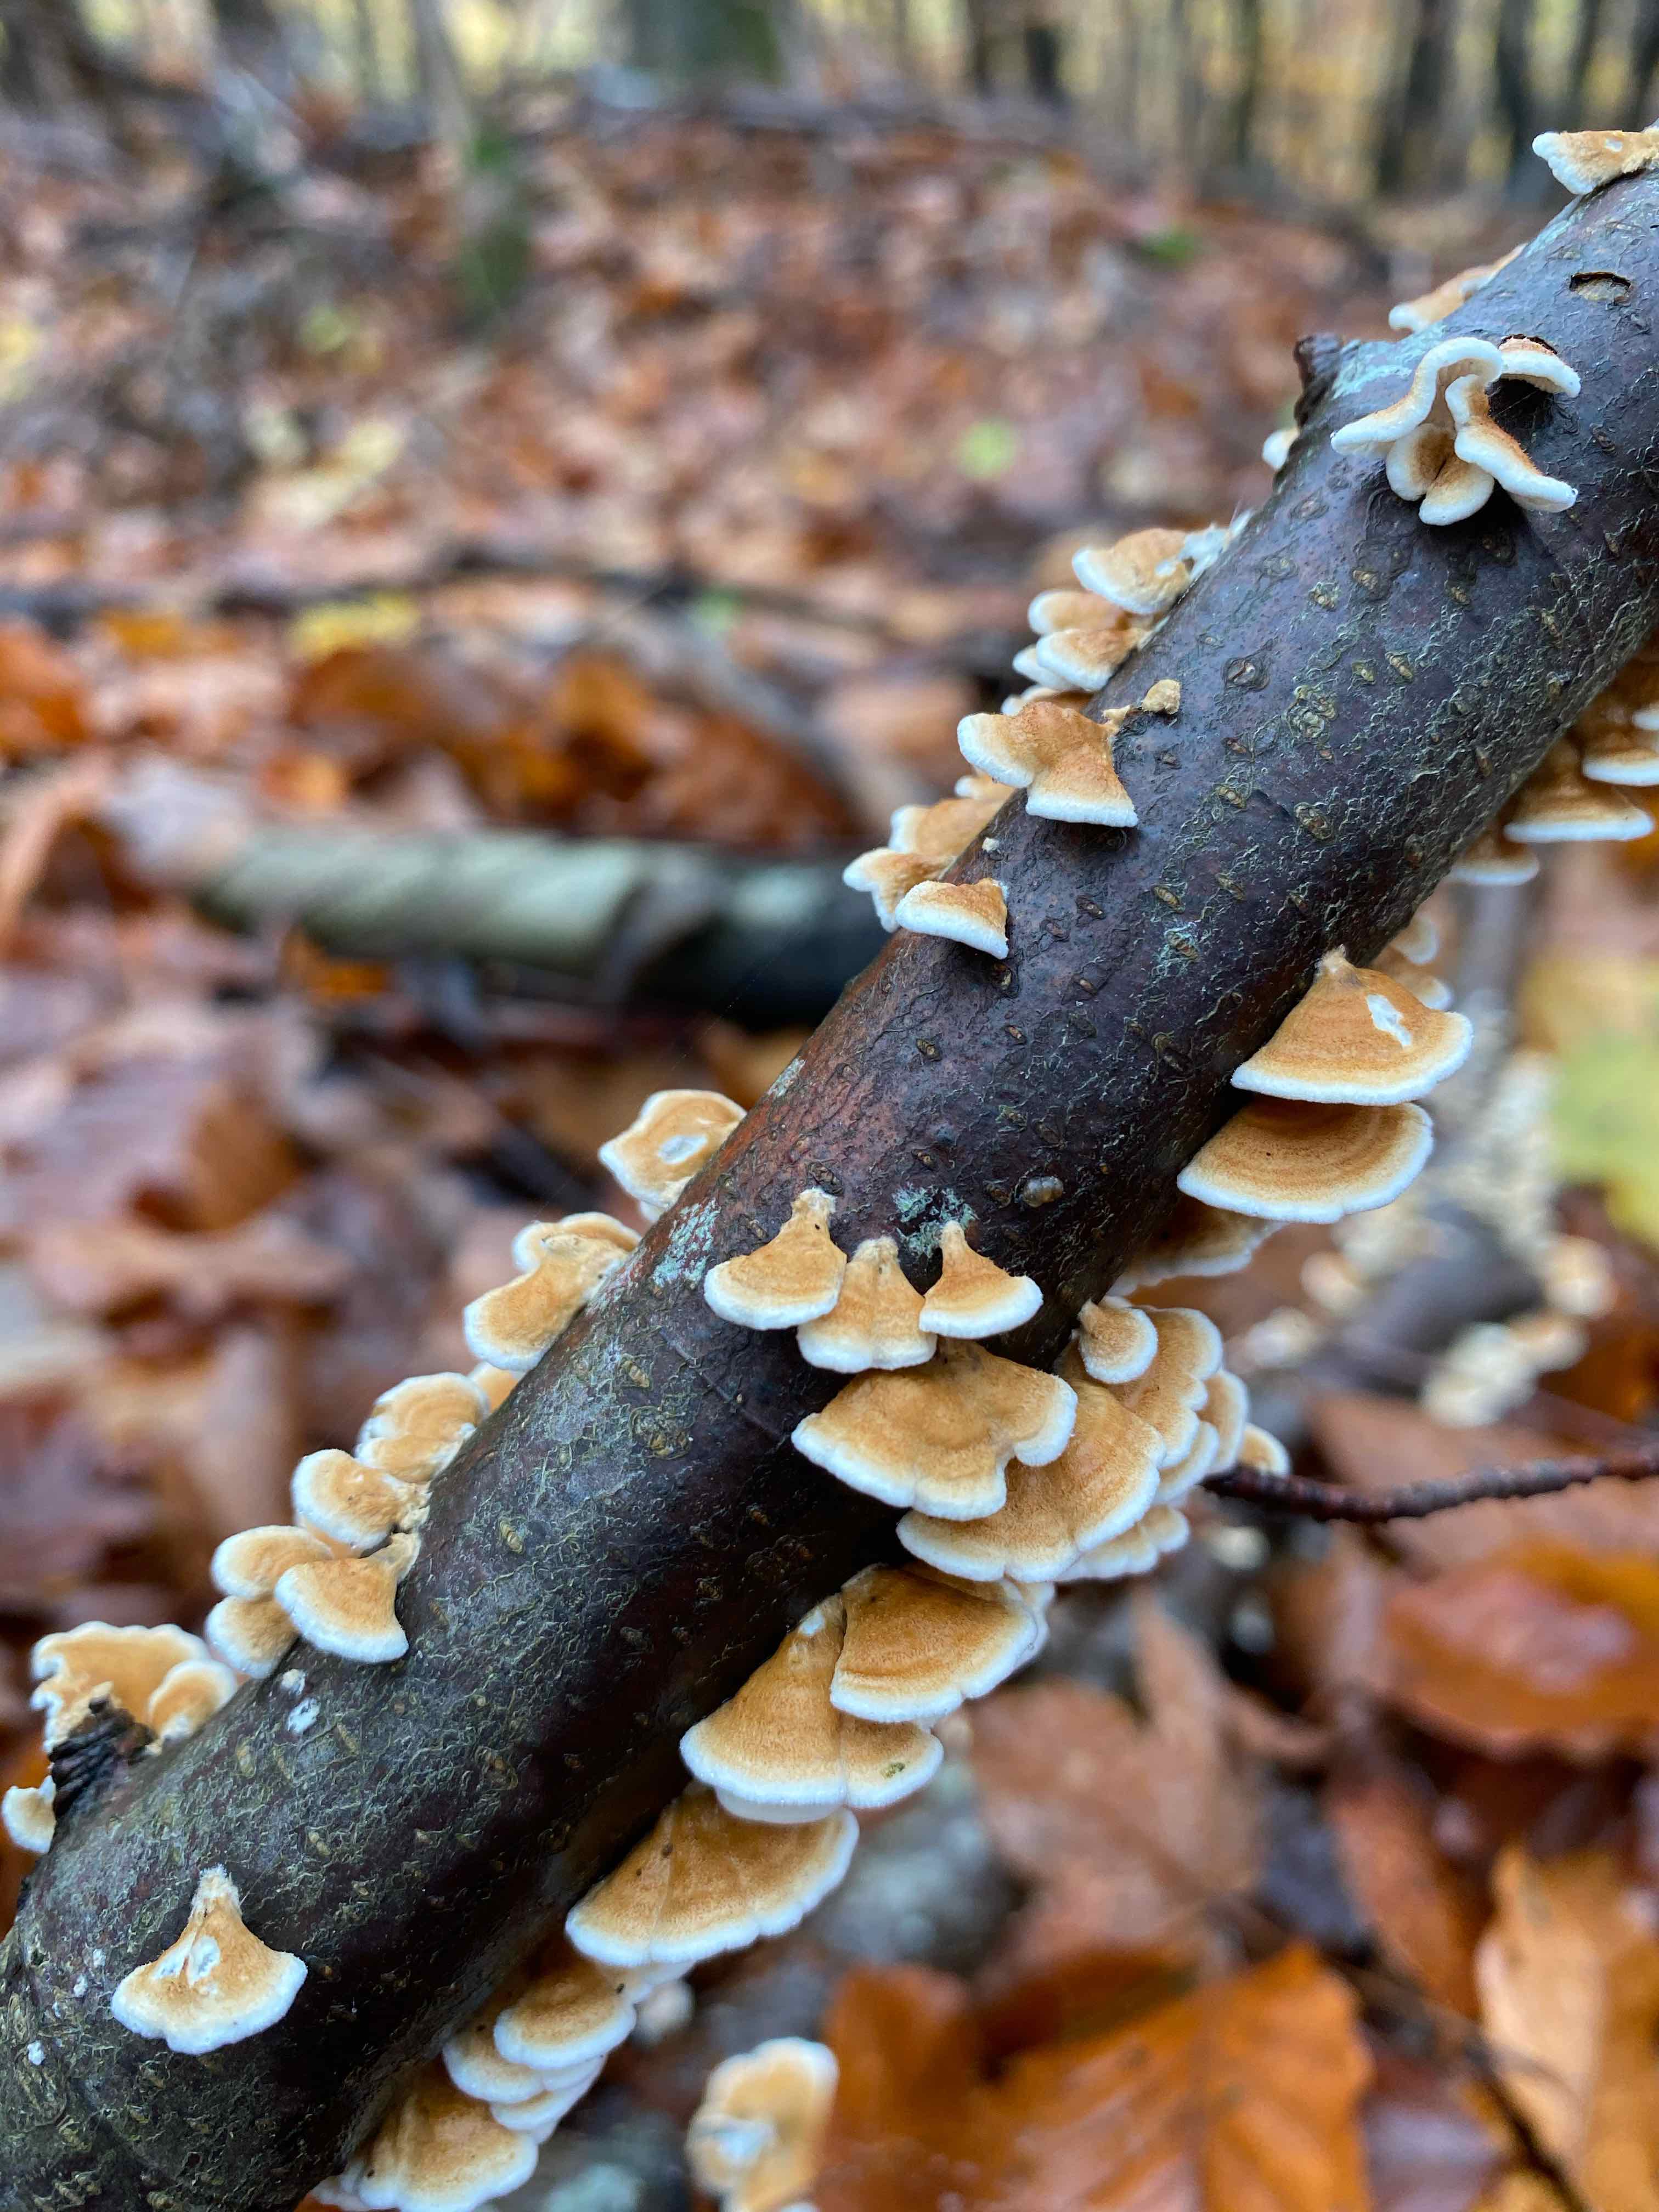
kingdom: Fungi
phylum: Basidiomycota
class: Agaricomycetes
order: Amylocorticiales
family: Amylocorticiaceae
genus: Plicaturopsis
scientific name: Plicaturopsis crispa
